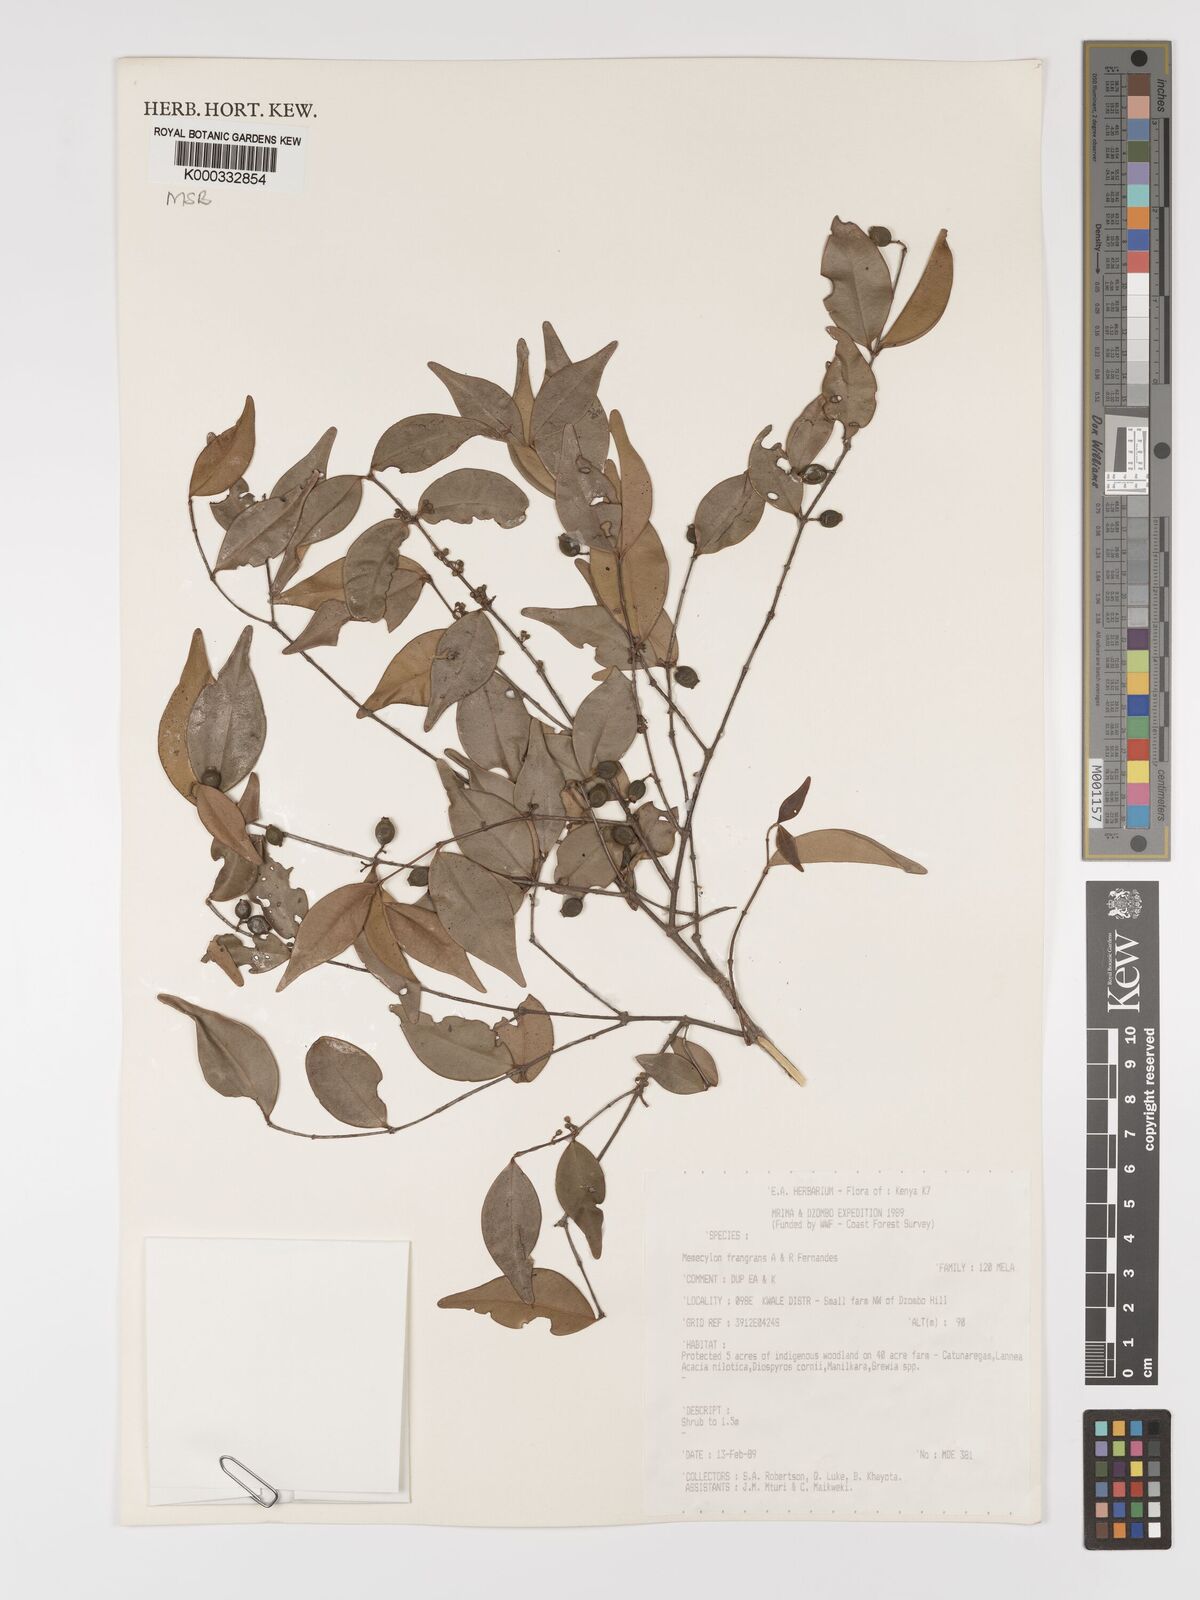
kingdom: Plantae
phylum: Tracheophyta
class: Magnoliopsida
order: Myrtales
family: Melastomataceae
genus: Memecylon
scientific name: Memecylon fragrans
